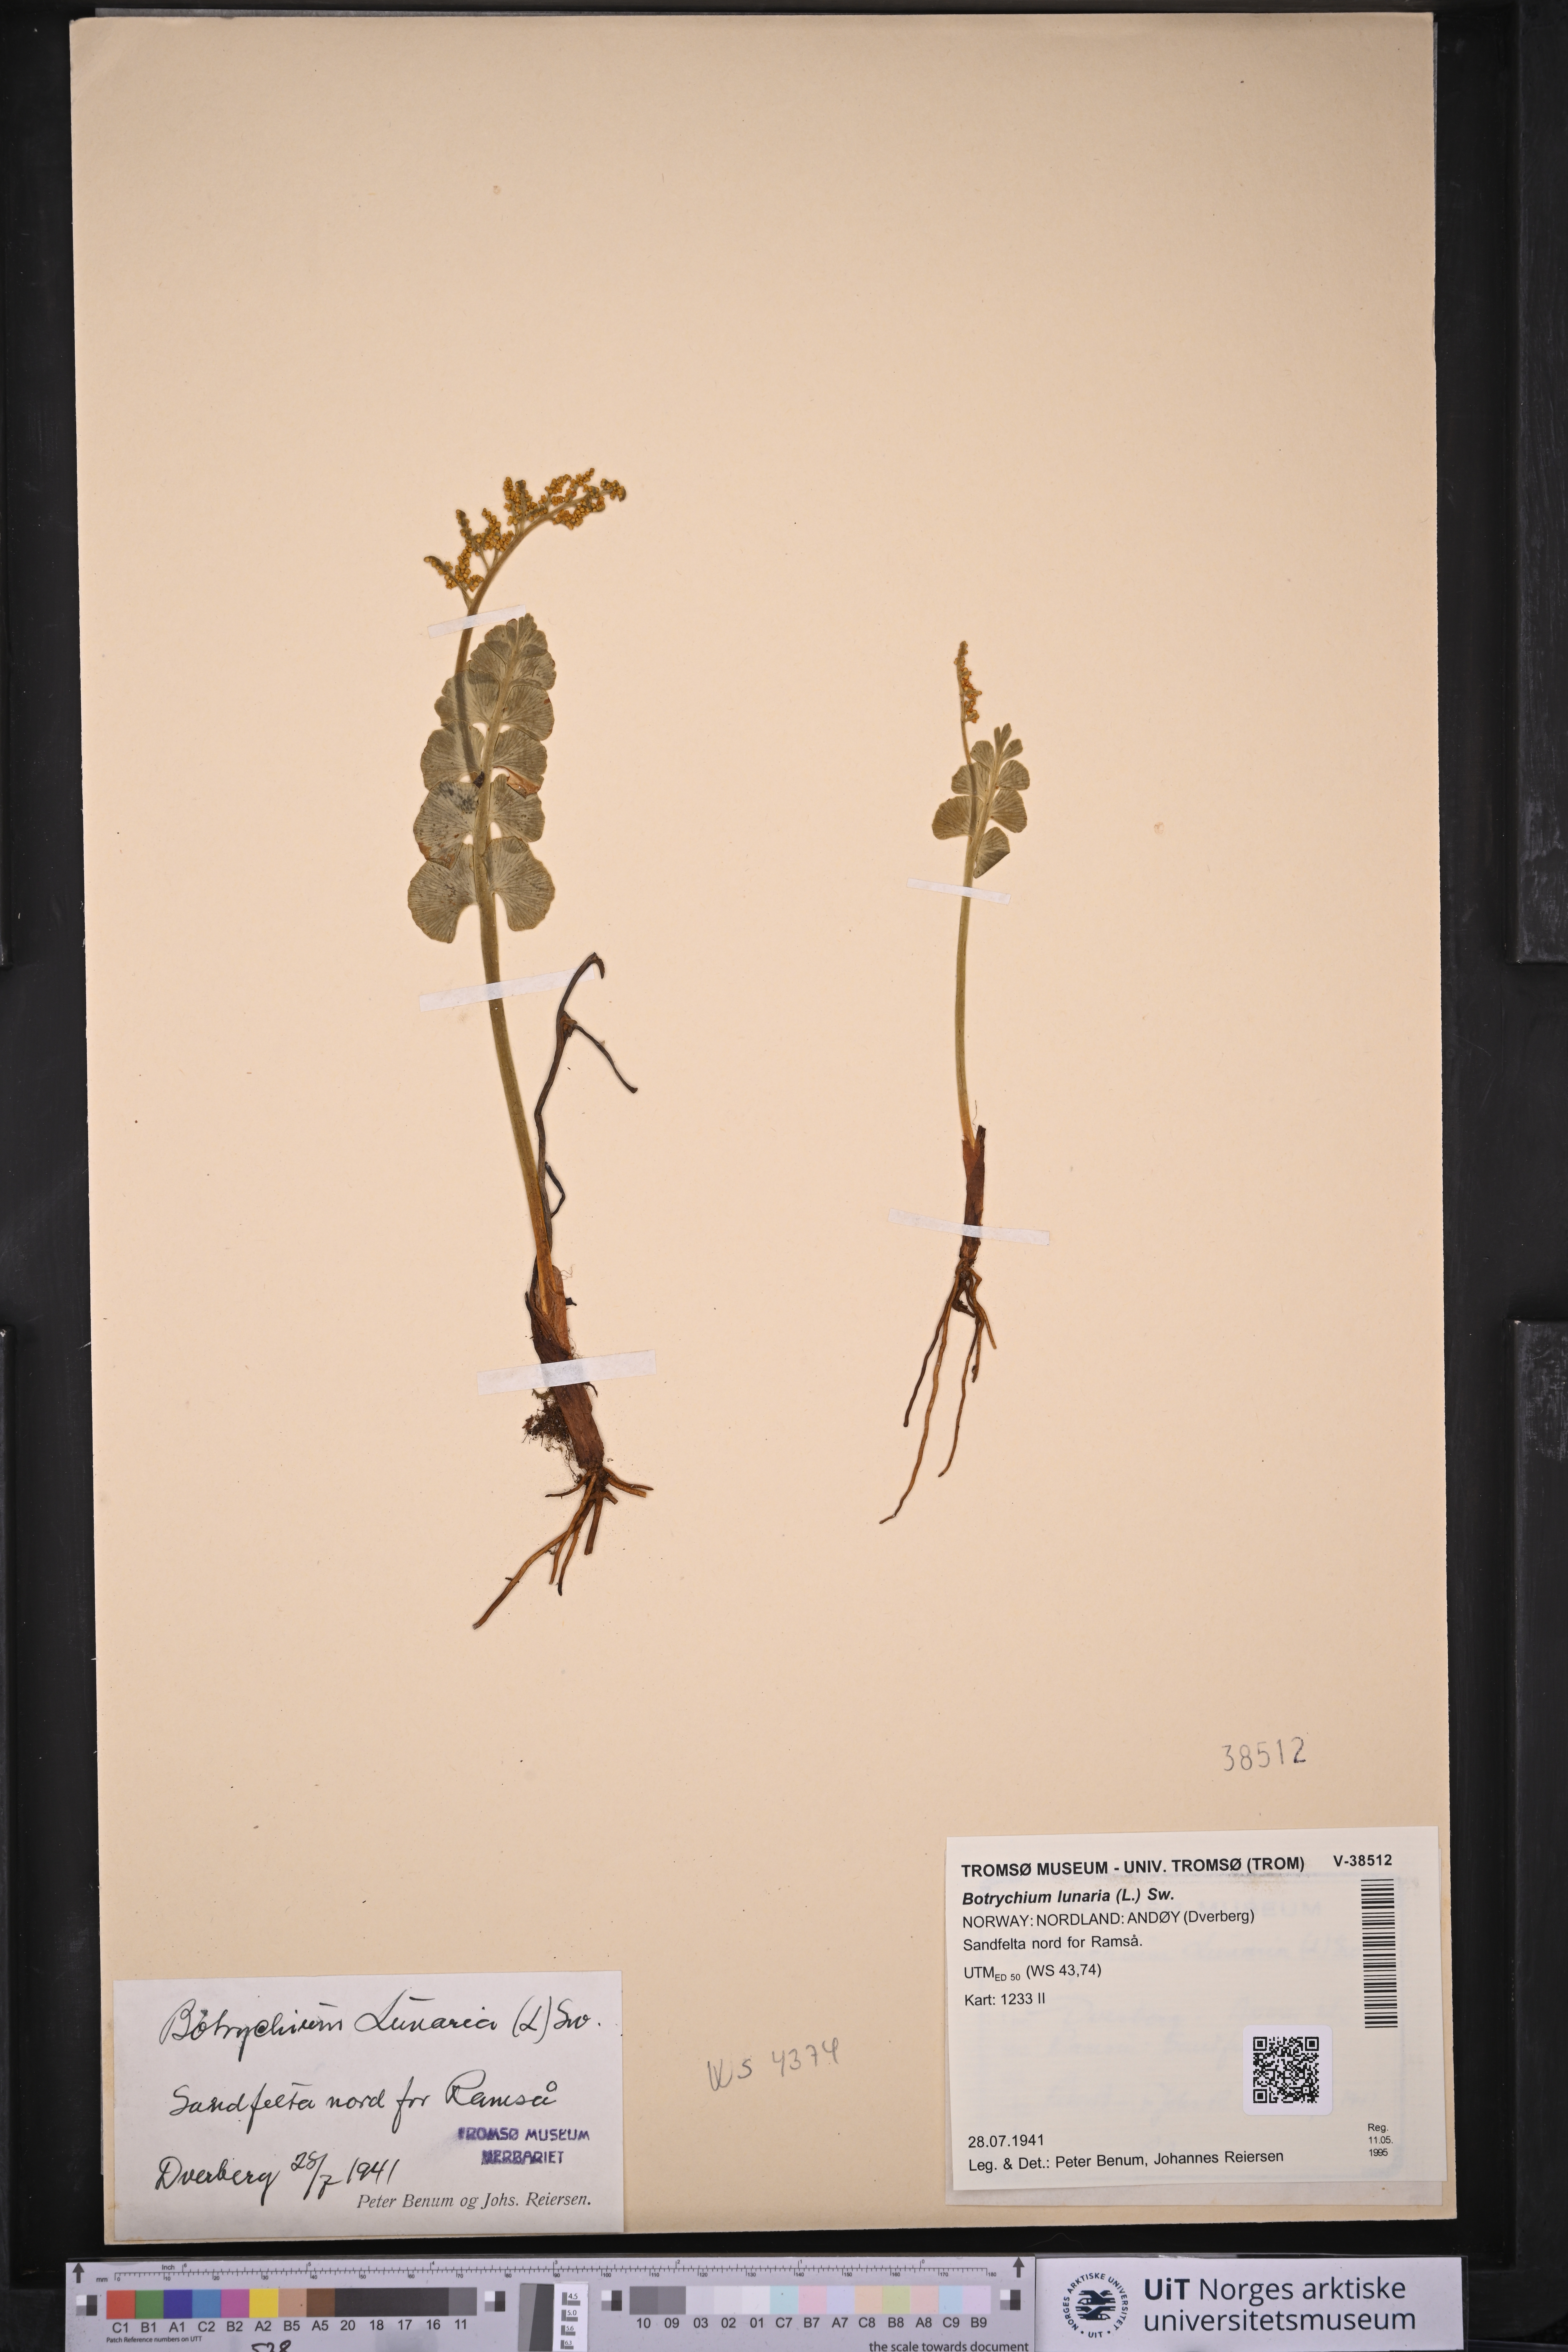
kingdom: Plantae
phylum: Tracheophyta
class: Polypodiopsida
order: Ophioglossales
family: Ophioglossaceae
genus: Botrychium
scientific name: Botrychium lunaria
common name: Moonwort
